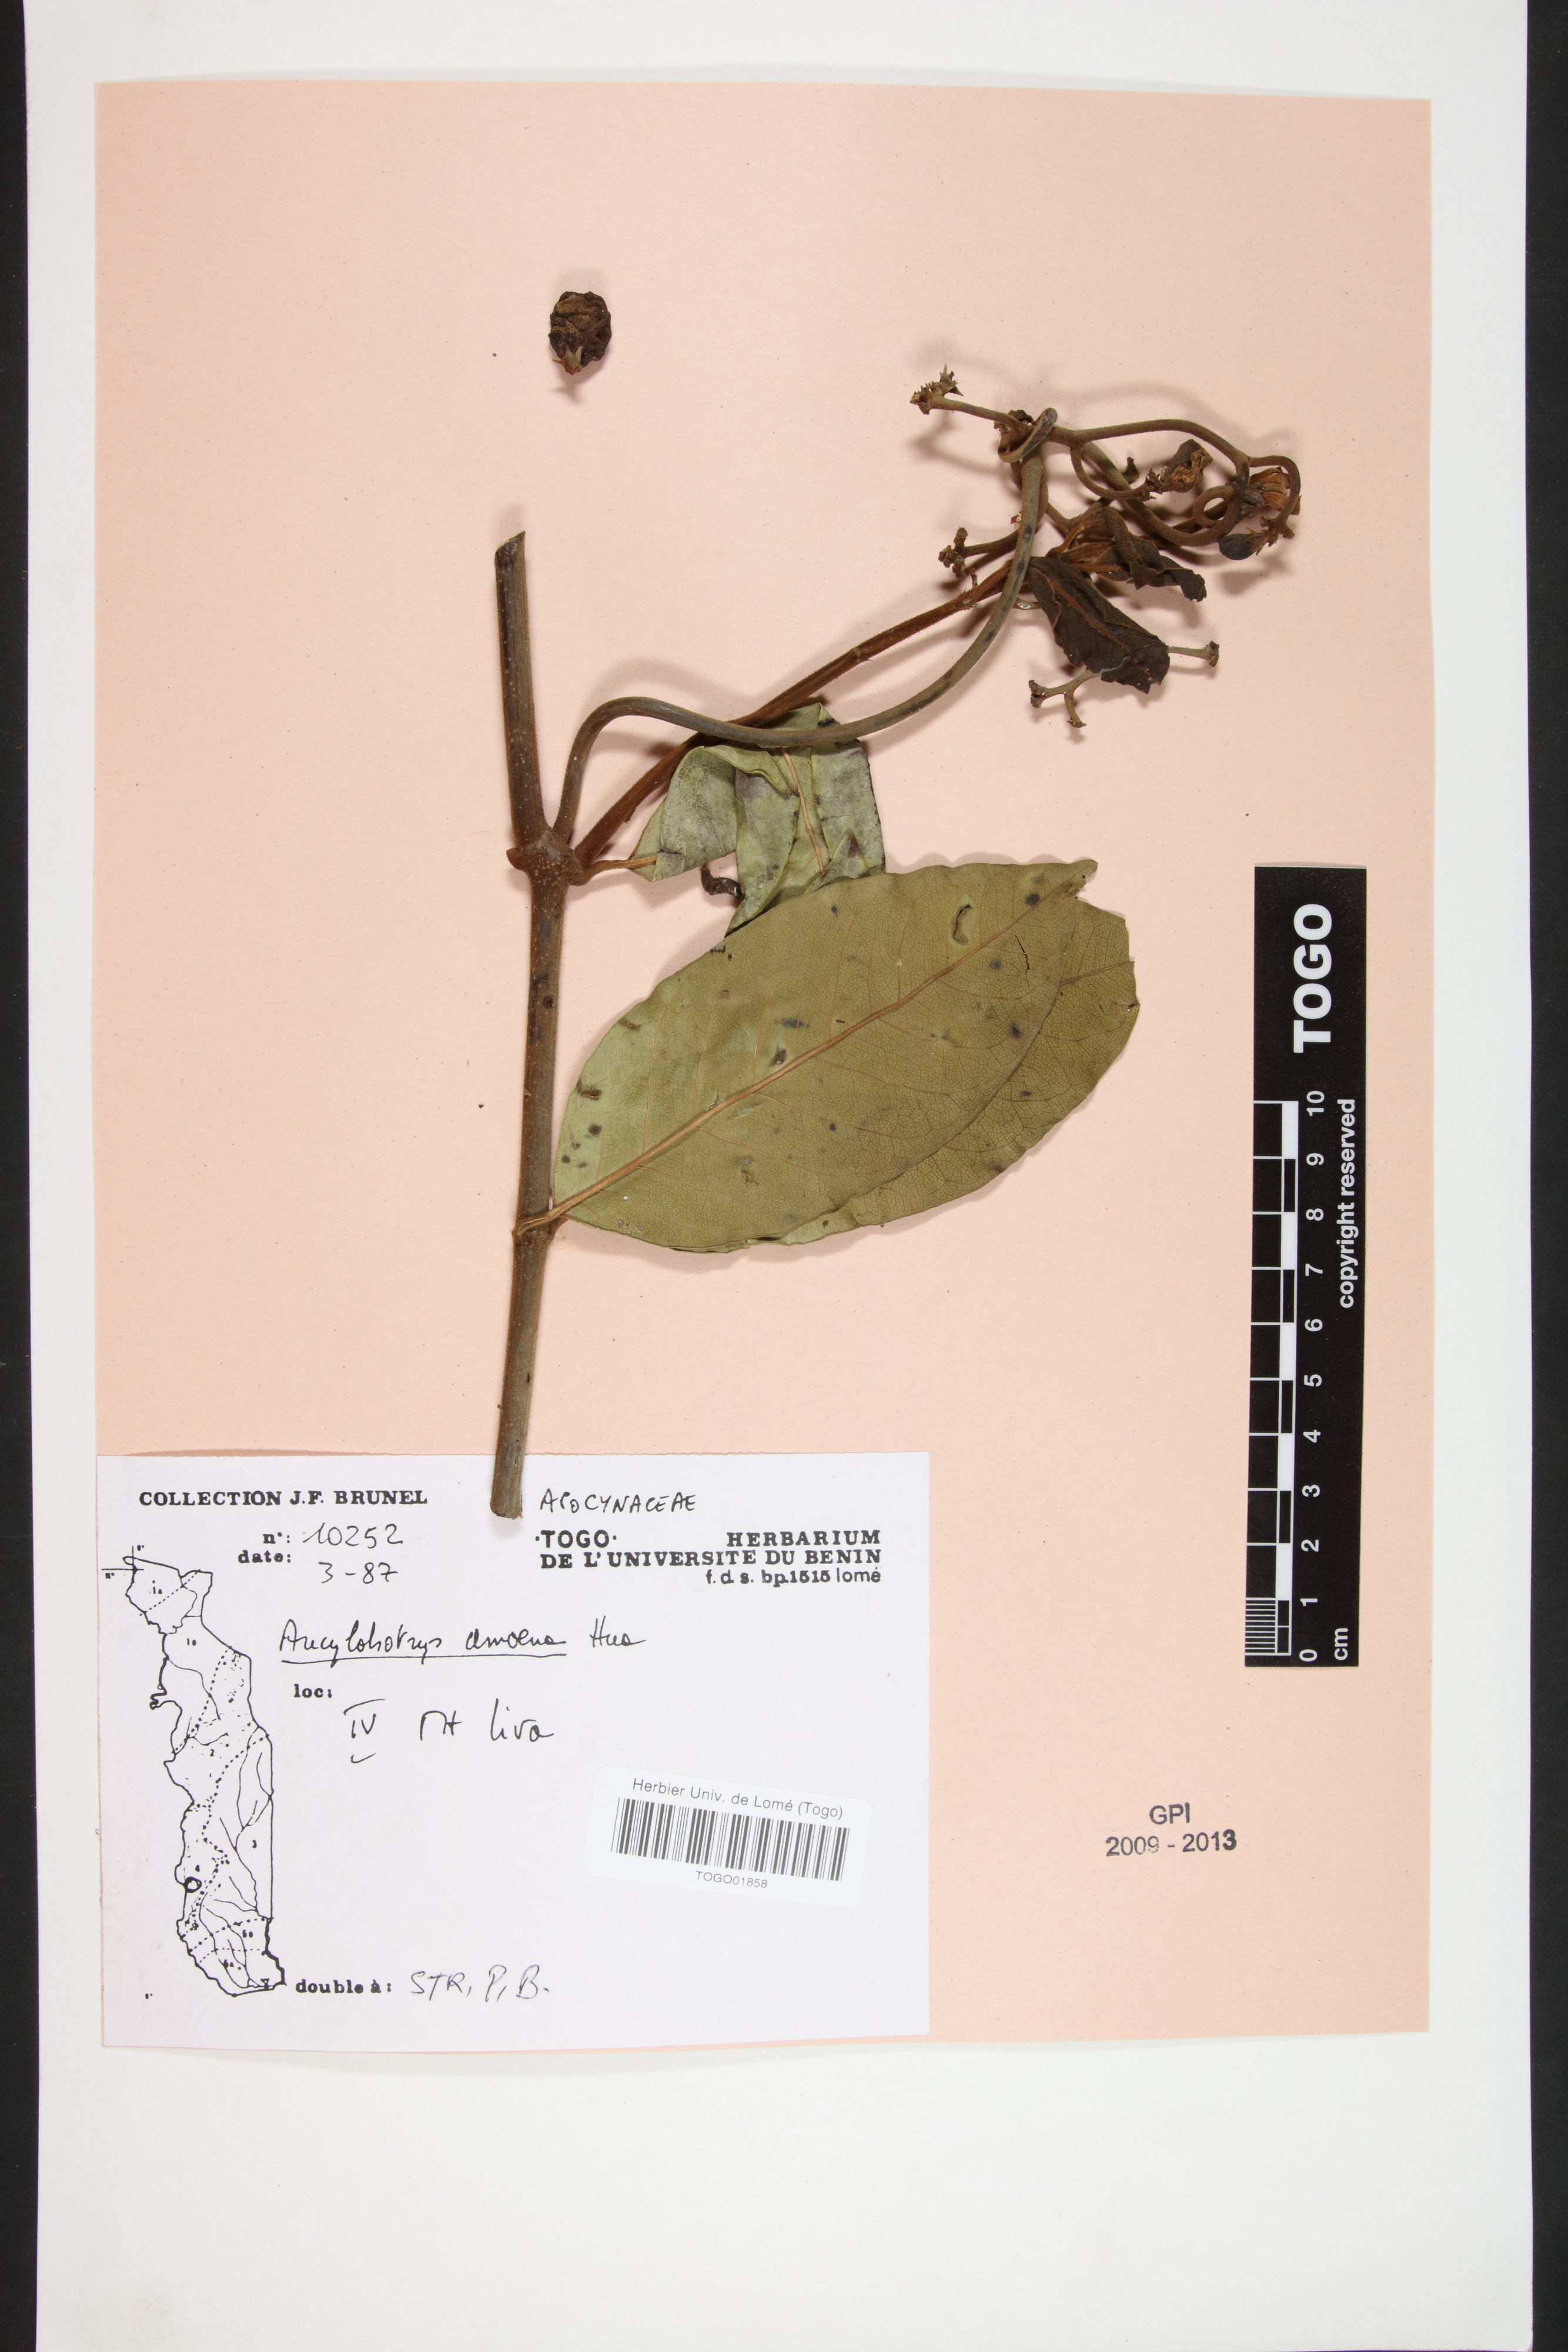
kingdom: Plantae
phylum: Tracheophyta
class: Magnoliopsida
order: Gentianales
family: Apocynaceae
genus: Ancylobothrys
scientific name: Ancylobothrys amoena
